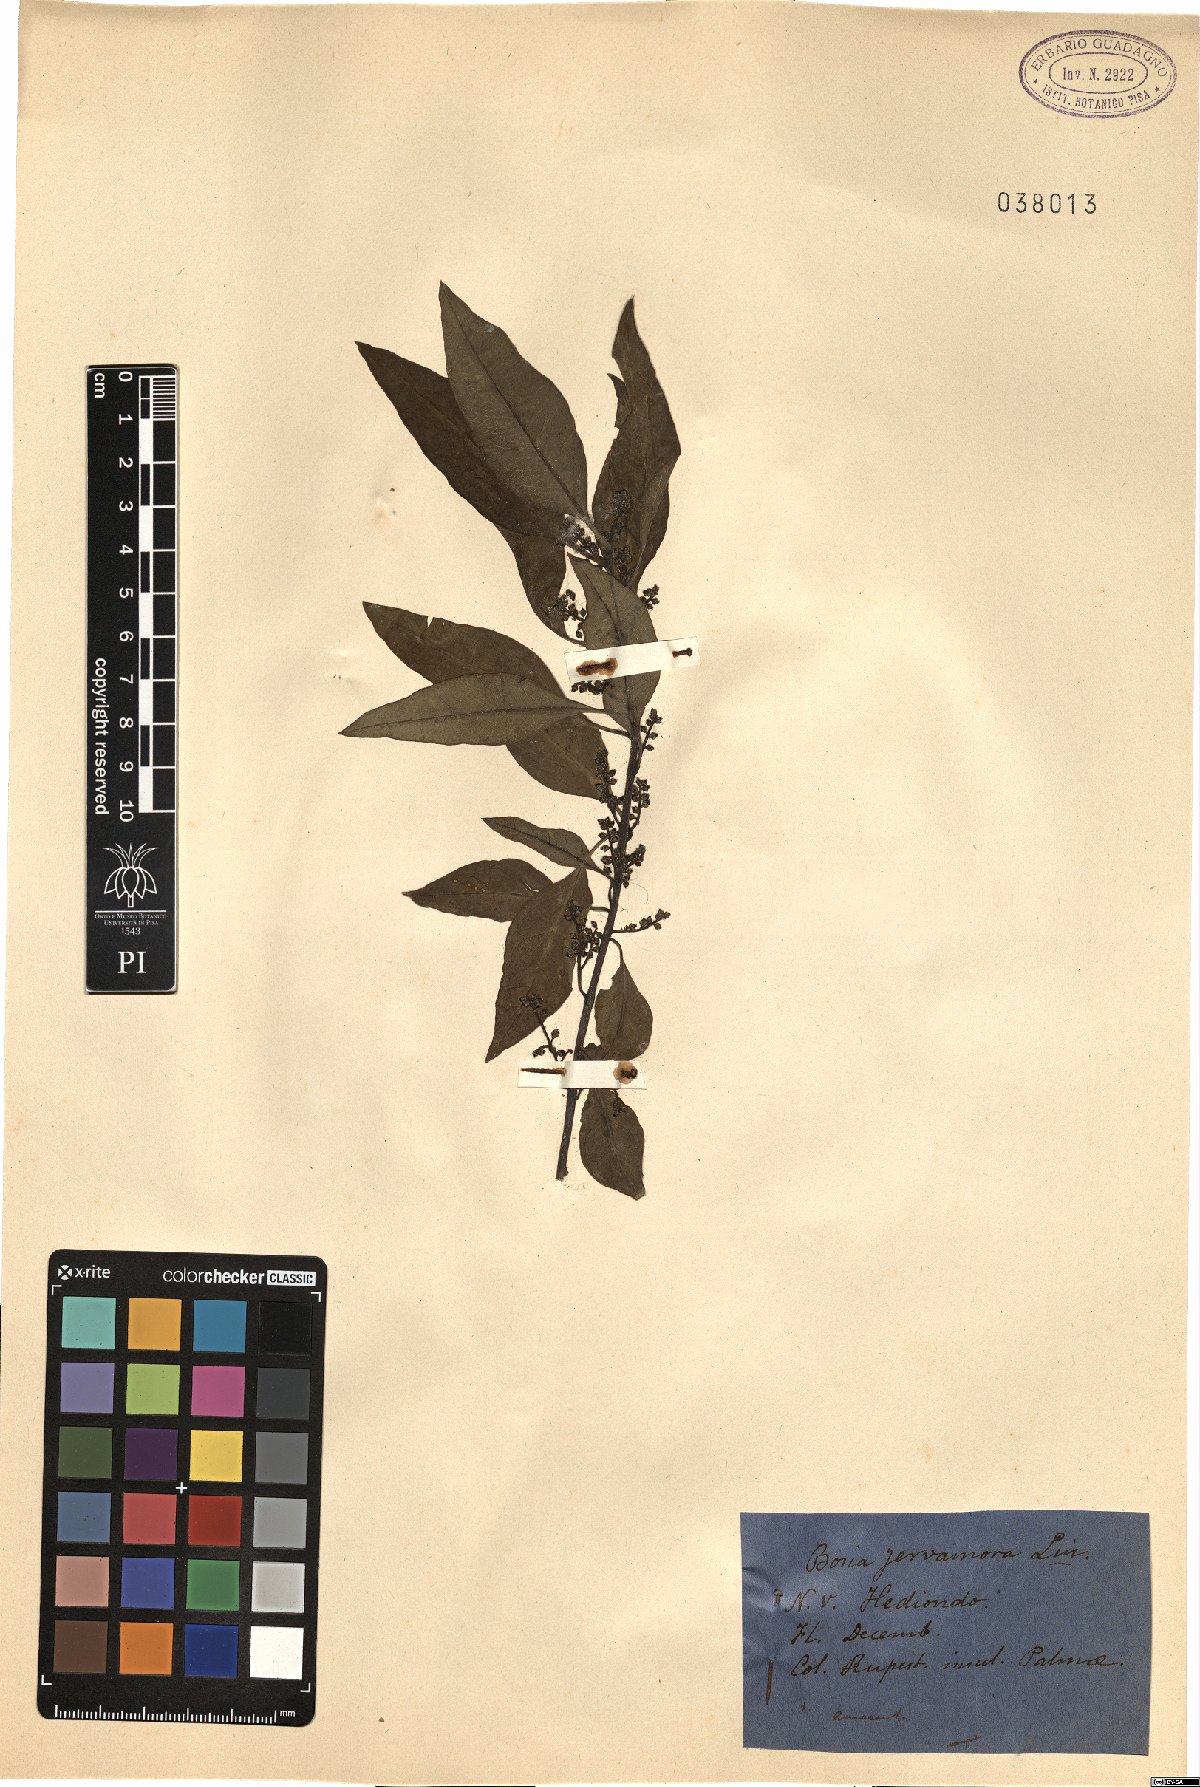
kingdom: Plantae
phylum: Tracheophyta
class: Magnoliopsida
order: Caryophyllales
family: Amaranthaceae
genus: Bosea
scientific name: Bosea yervamora
